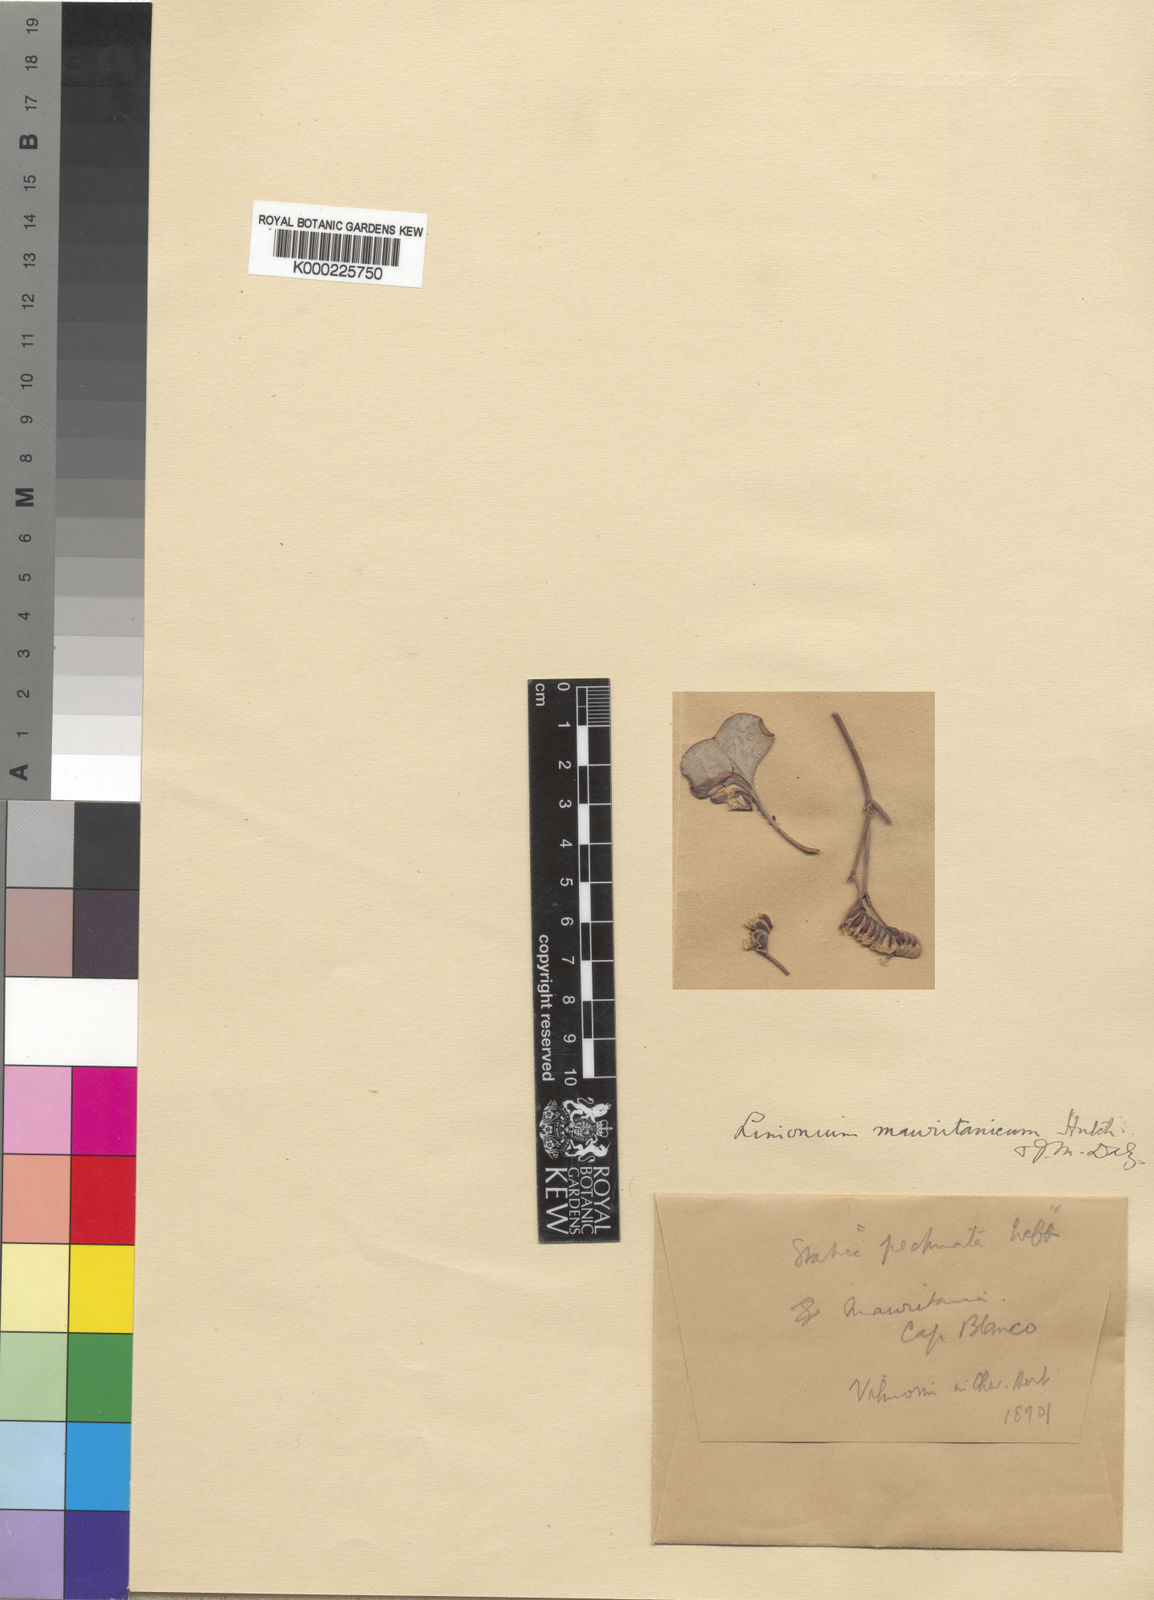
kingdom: Plantae
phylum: Tracheophyta
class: Magnoliopsida
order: Caryophyllales
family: Plumbaginaceae
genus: Limonium
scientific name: Limonium chazaliei
